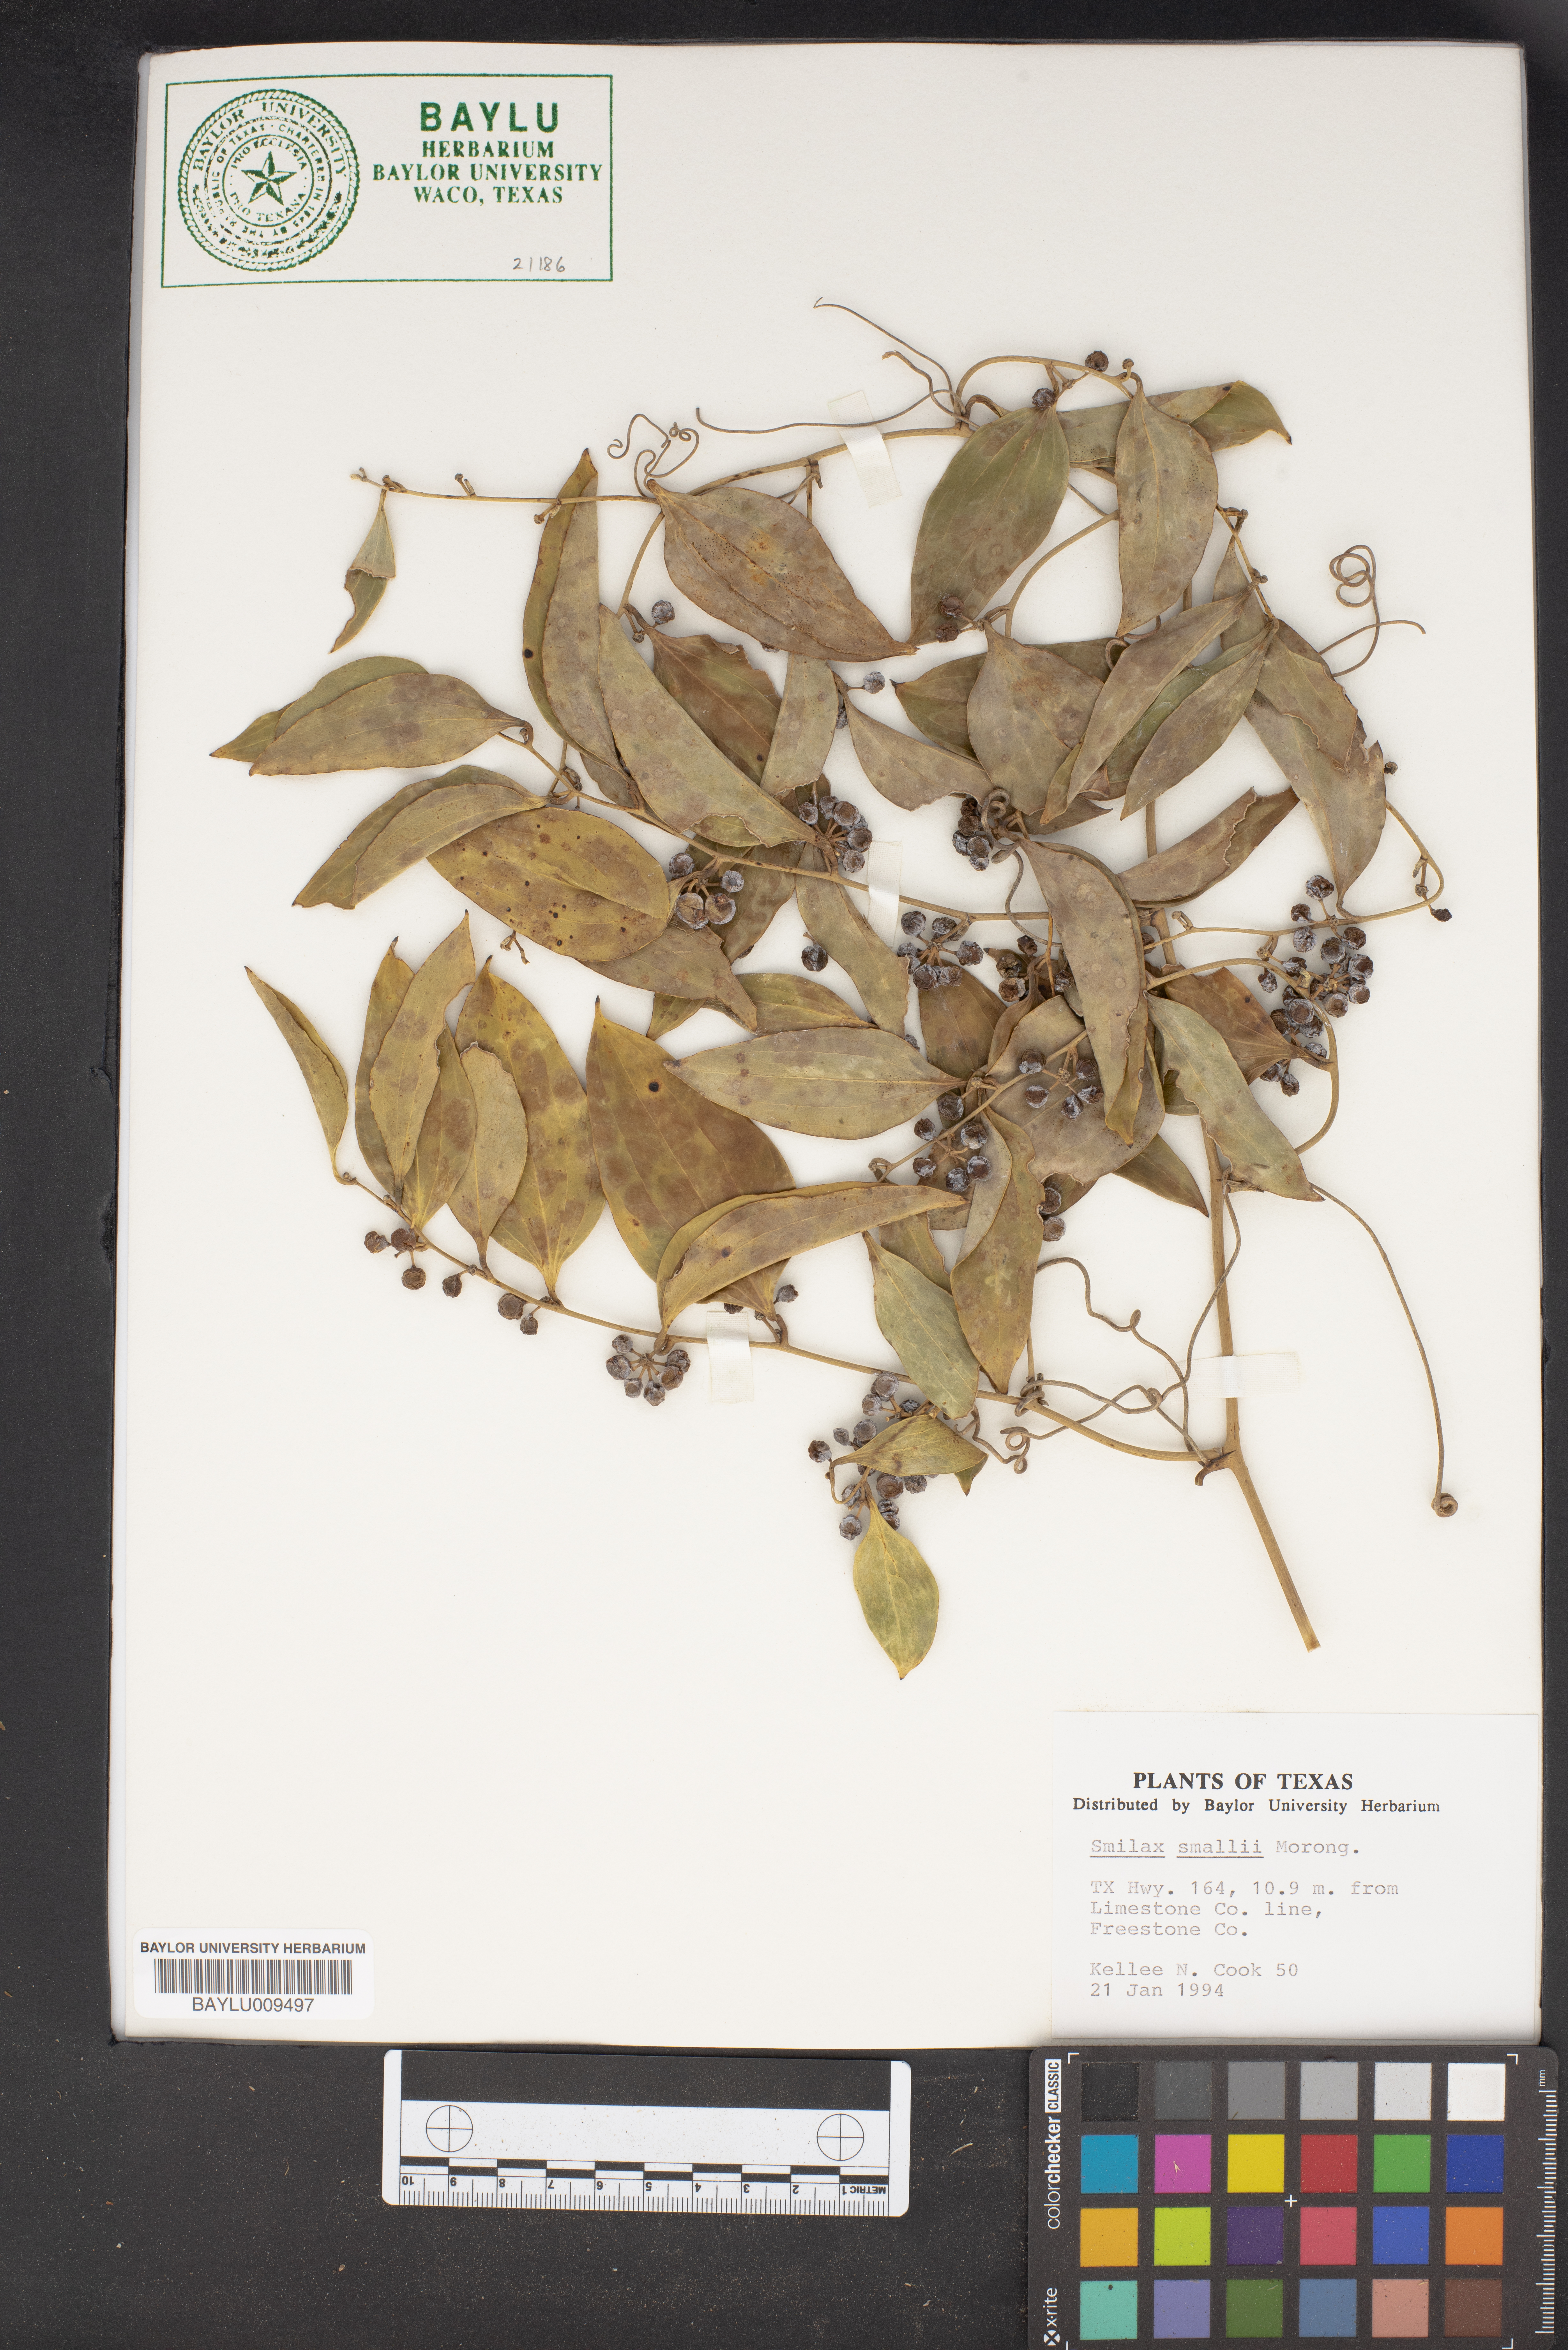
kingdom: Plantae
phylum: Tracheophyta
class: Liliopsida
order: Liliales
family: Smilacaceae
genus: Smilax
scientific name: Smilax maritima
